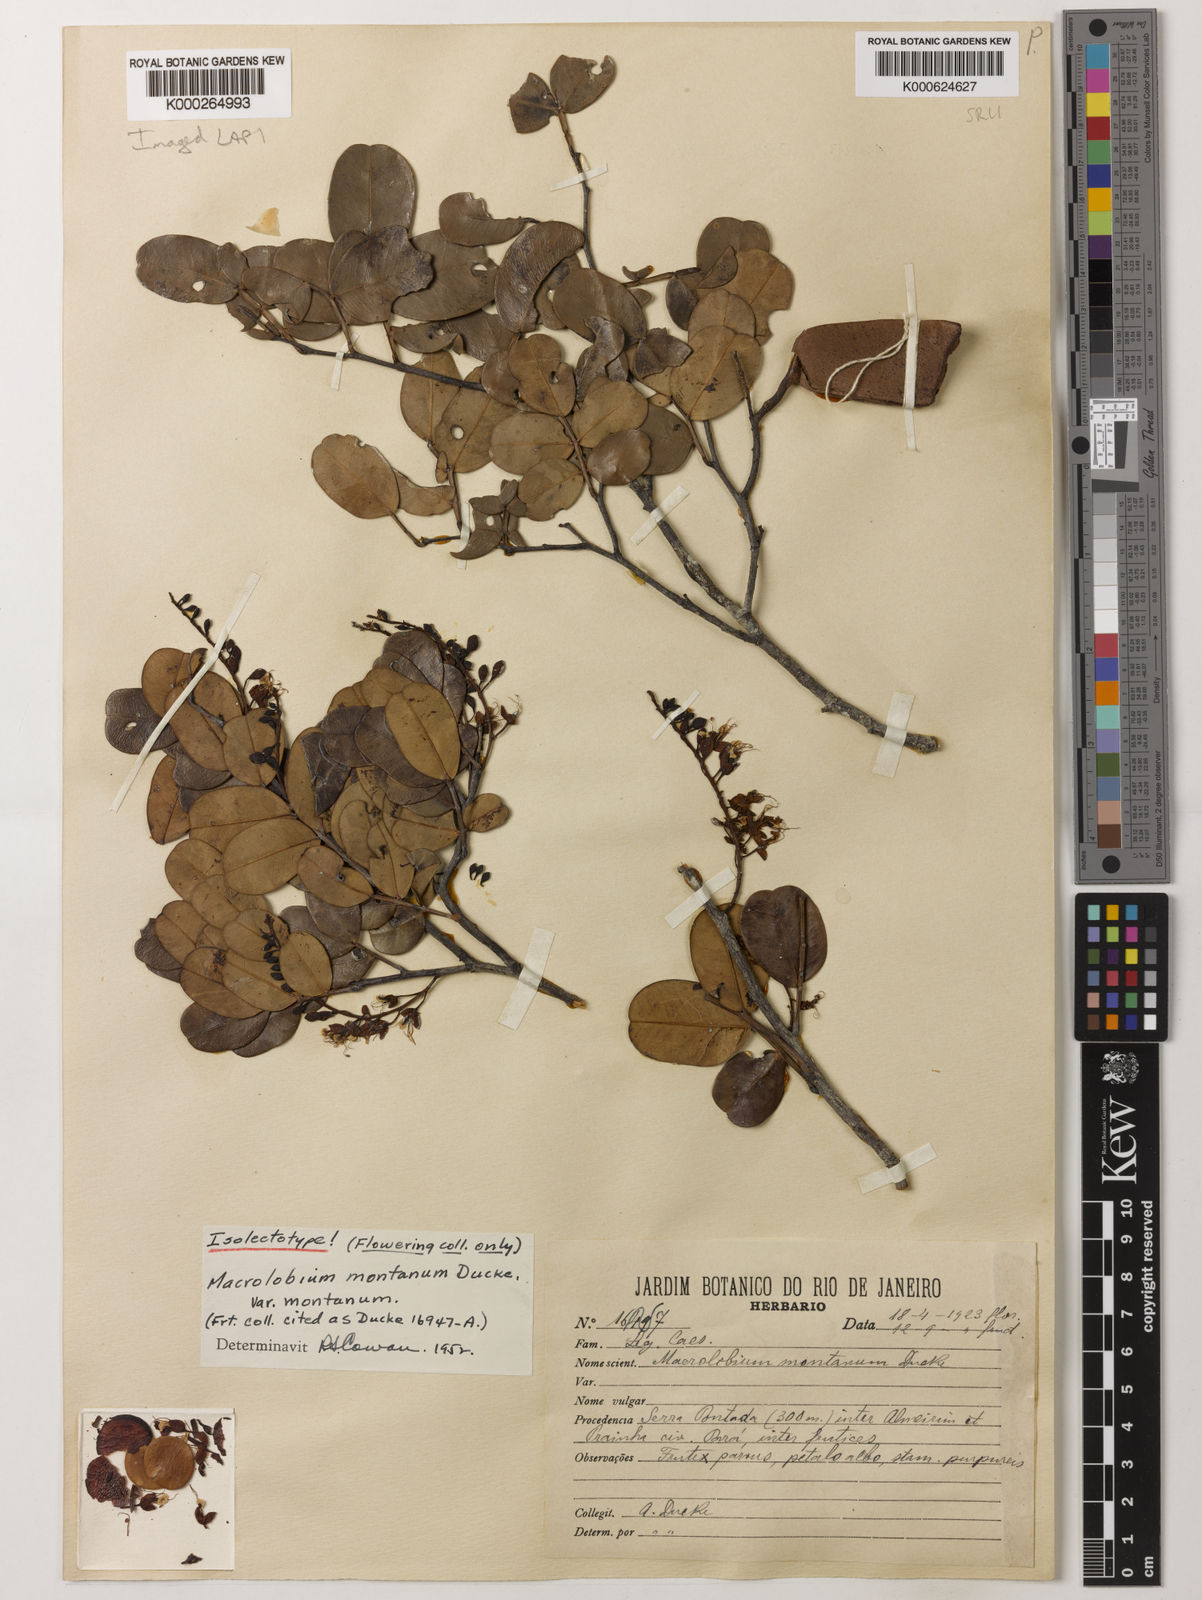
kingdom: Plantae
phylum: Tracheophyta
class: Magnoliopsida
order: Fabales
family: Fabaceae
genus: Macrolobium
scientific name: Macrolobium montanum
